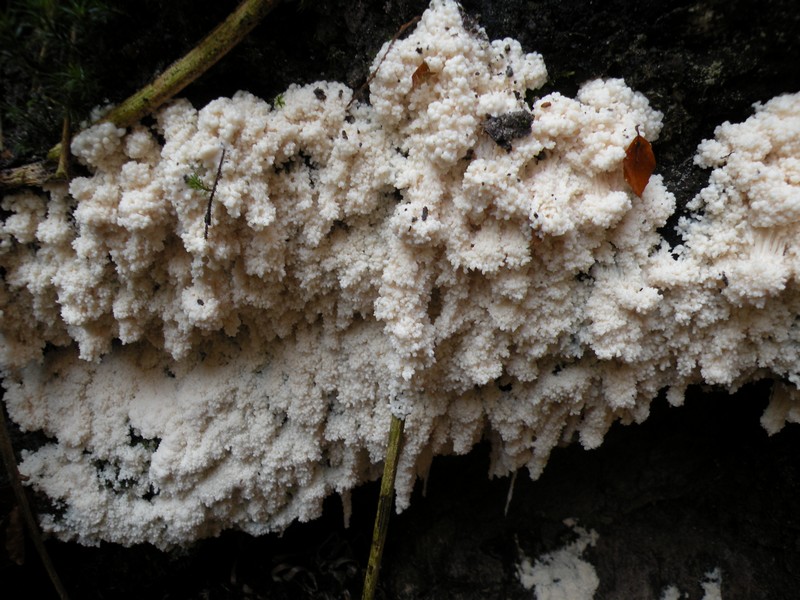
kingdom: Protozoa
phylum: Mycetozoa
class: Myxomycetes
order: Stemonitidales
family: Stemonitidaceae
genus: Brefeldia
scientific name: Brefeldia maxima
